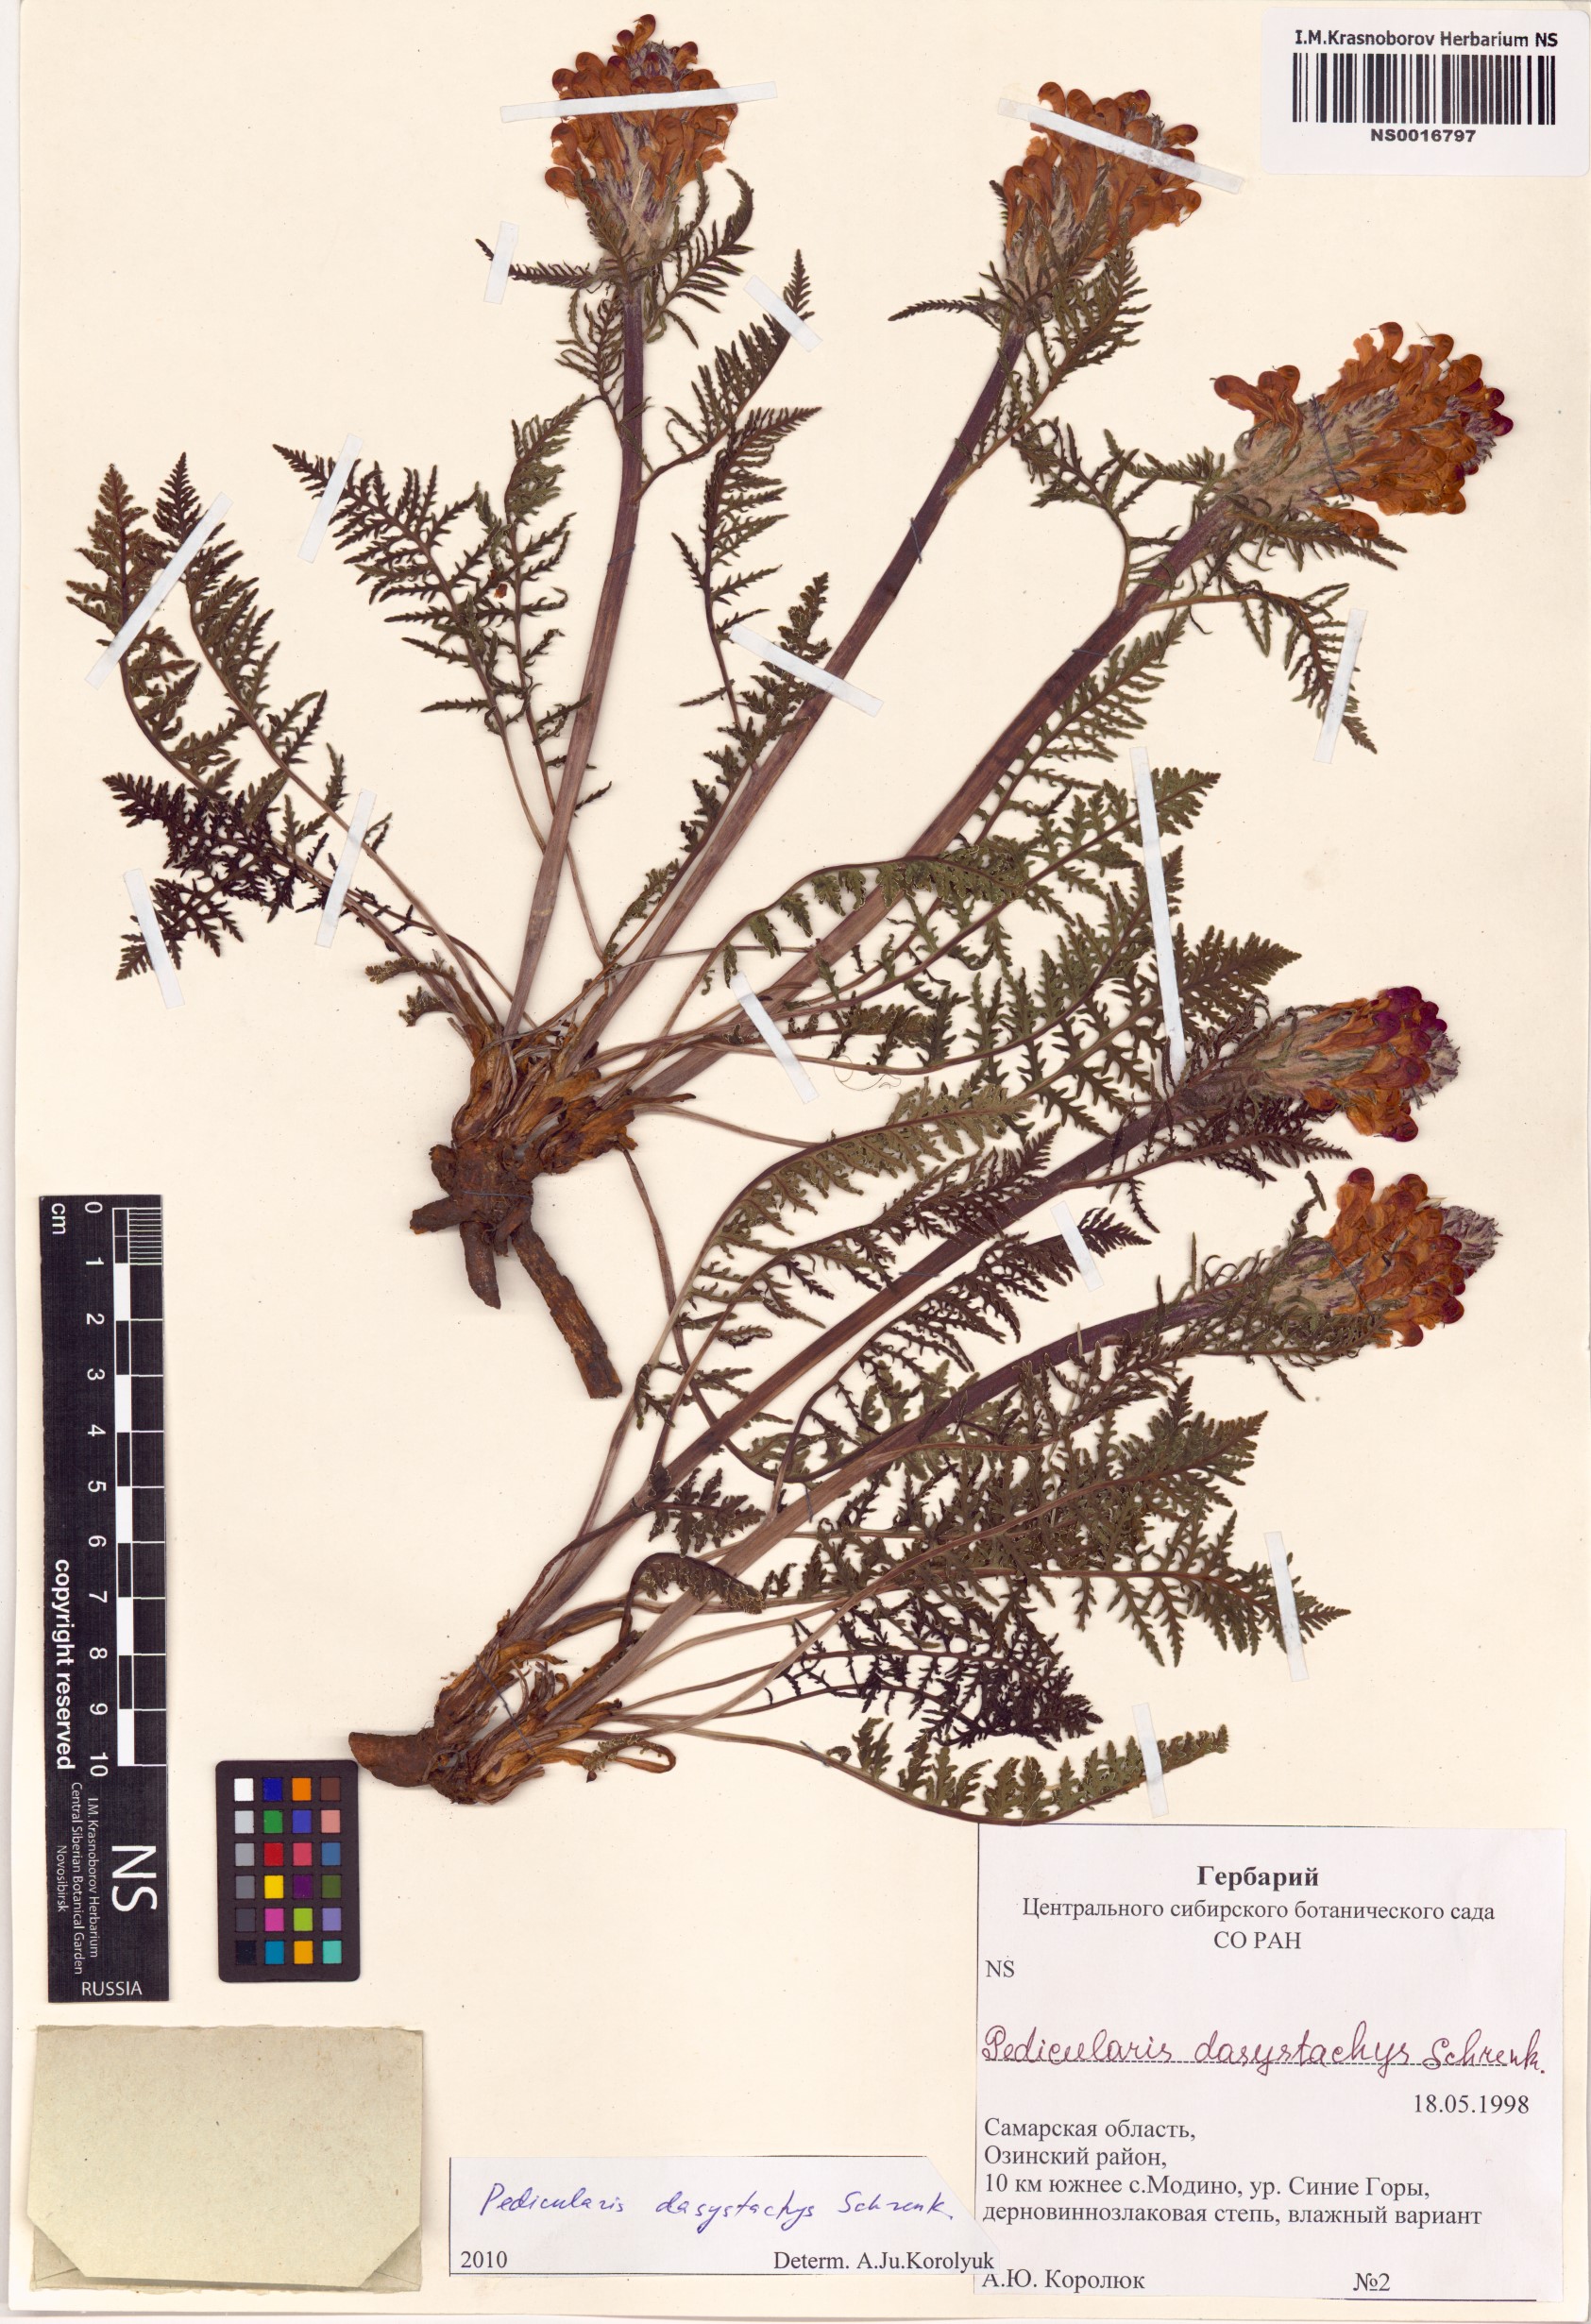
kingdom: Plantae
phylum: Tracheophyta
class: Magnoliopsida
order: Lamiales
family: Orobanchaceae
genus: Pedicularis
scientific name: Pedicularis dasystachys
